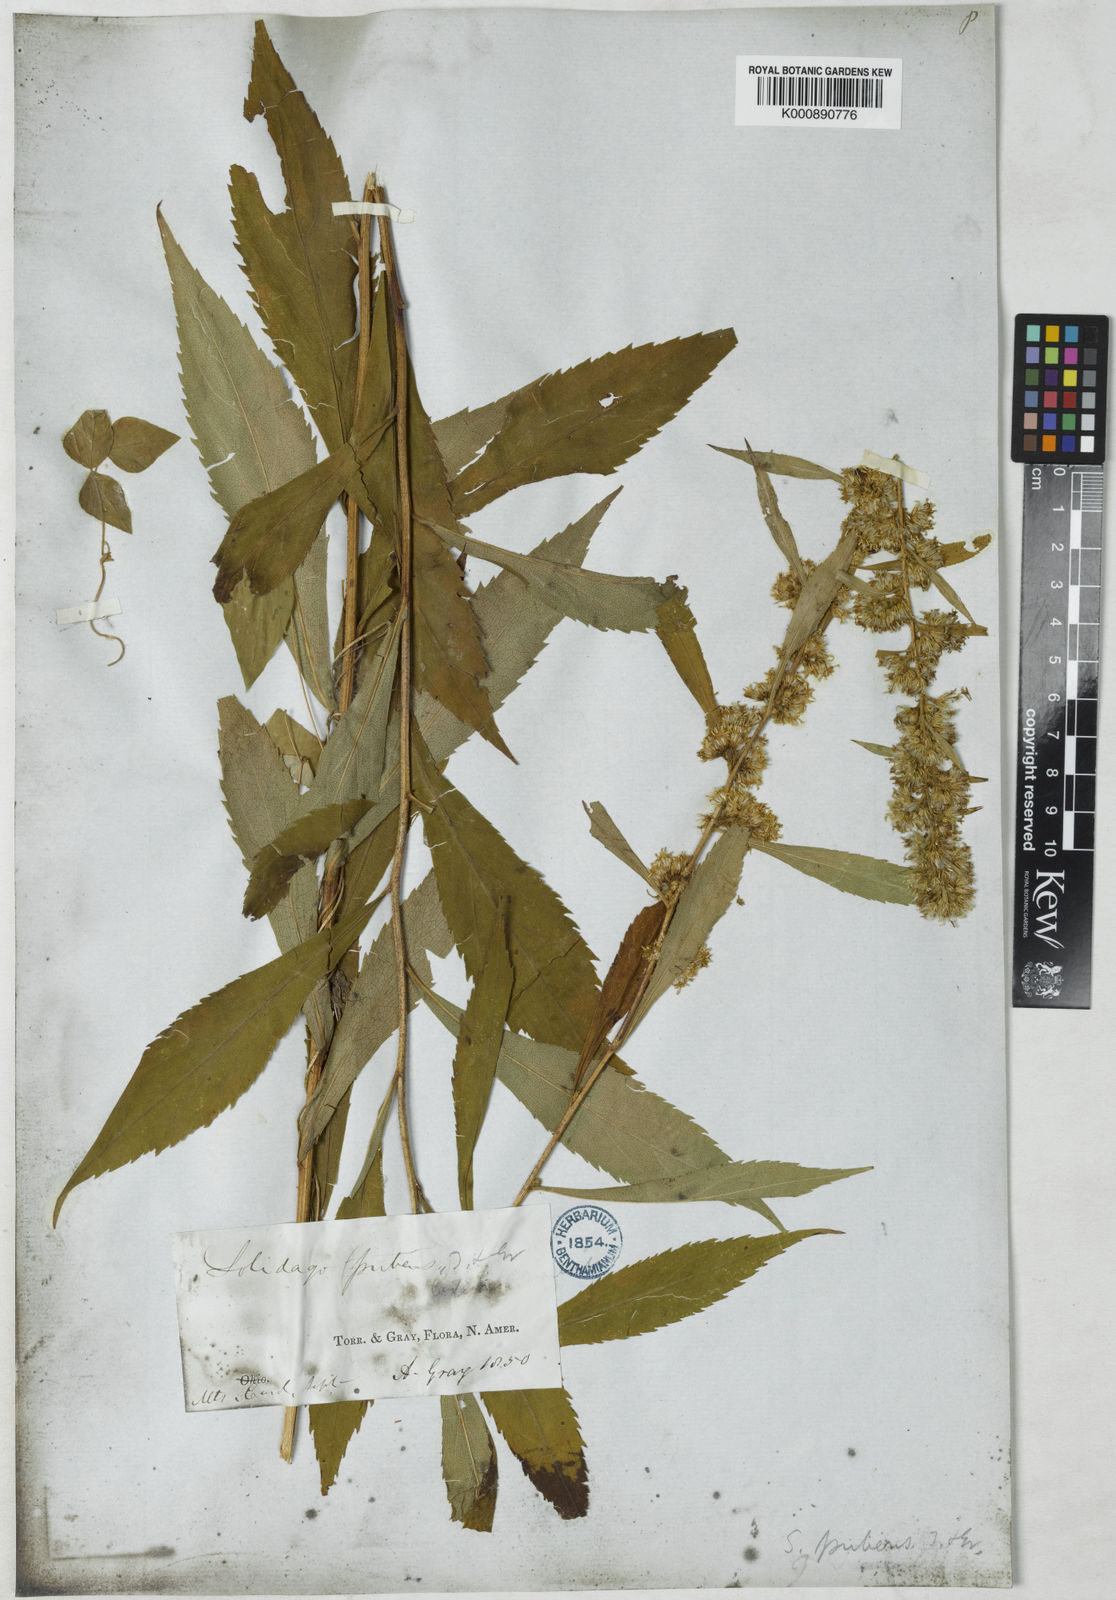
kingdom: Plantae
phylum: Tracheophyta
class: Magnoliopsida
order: Asterales
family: Asteraceae
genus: Solidago
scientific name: Solidago
